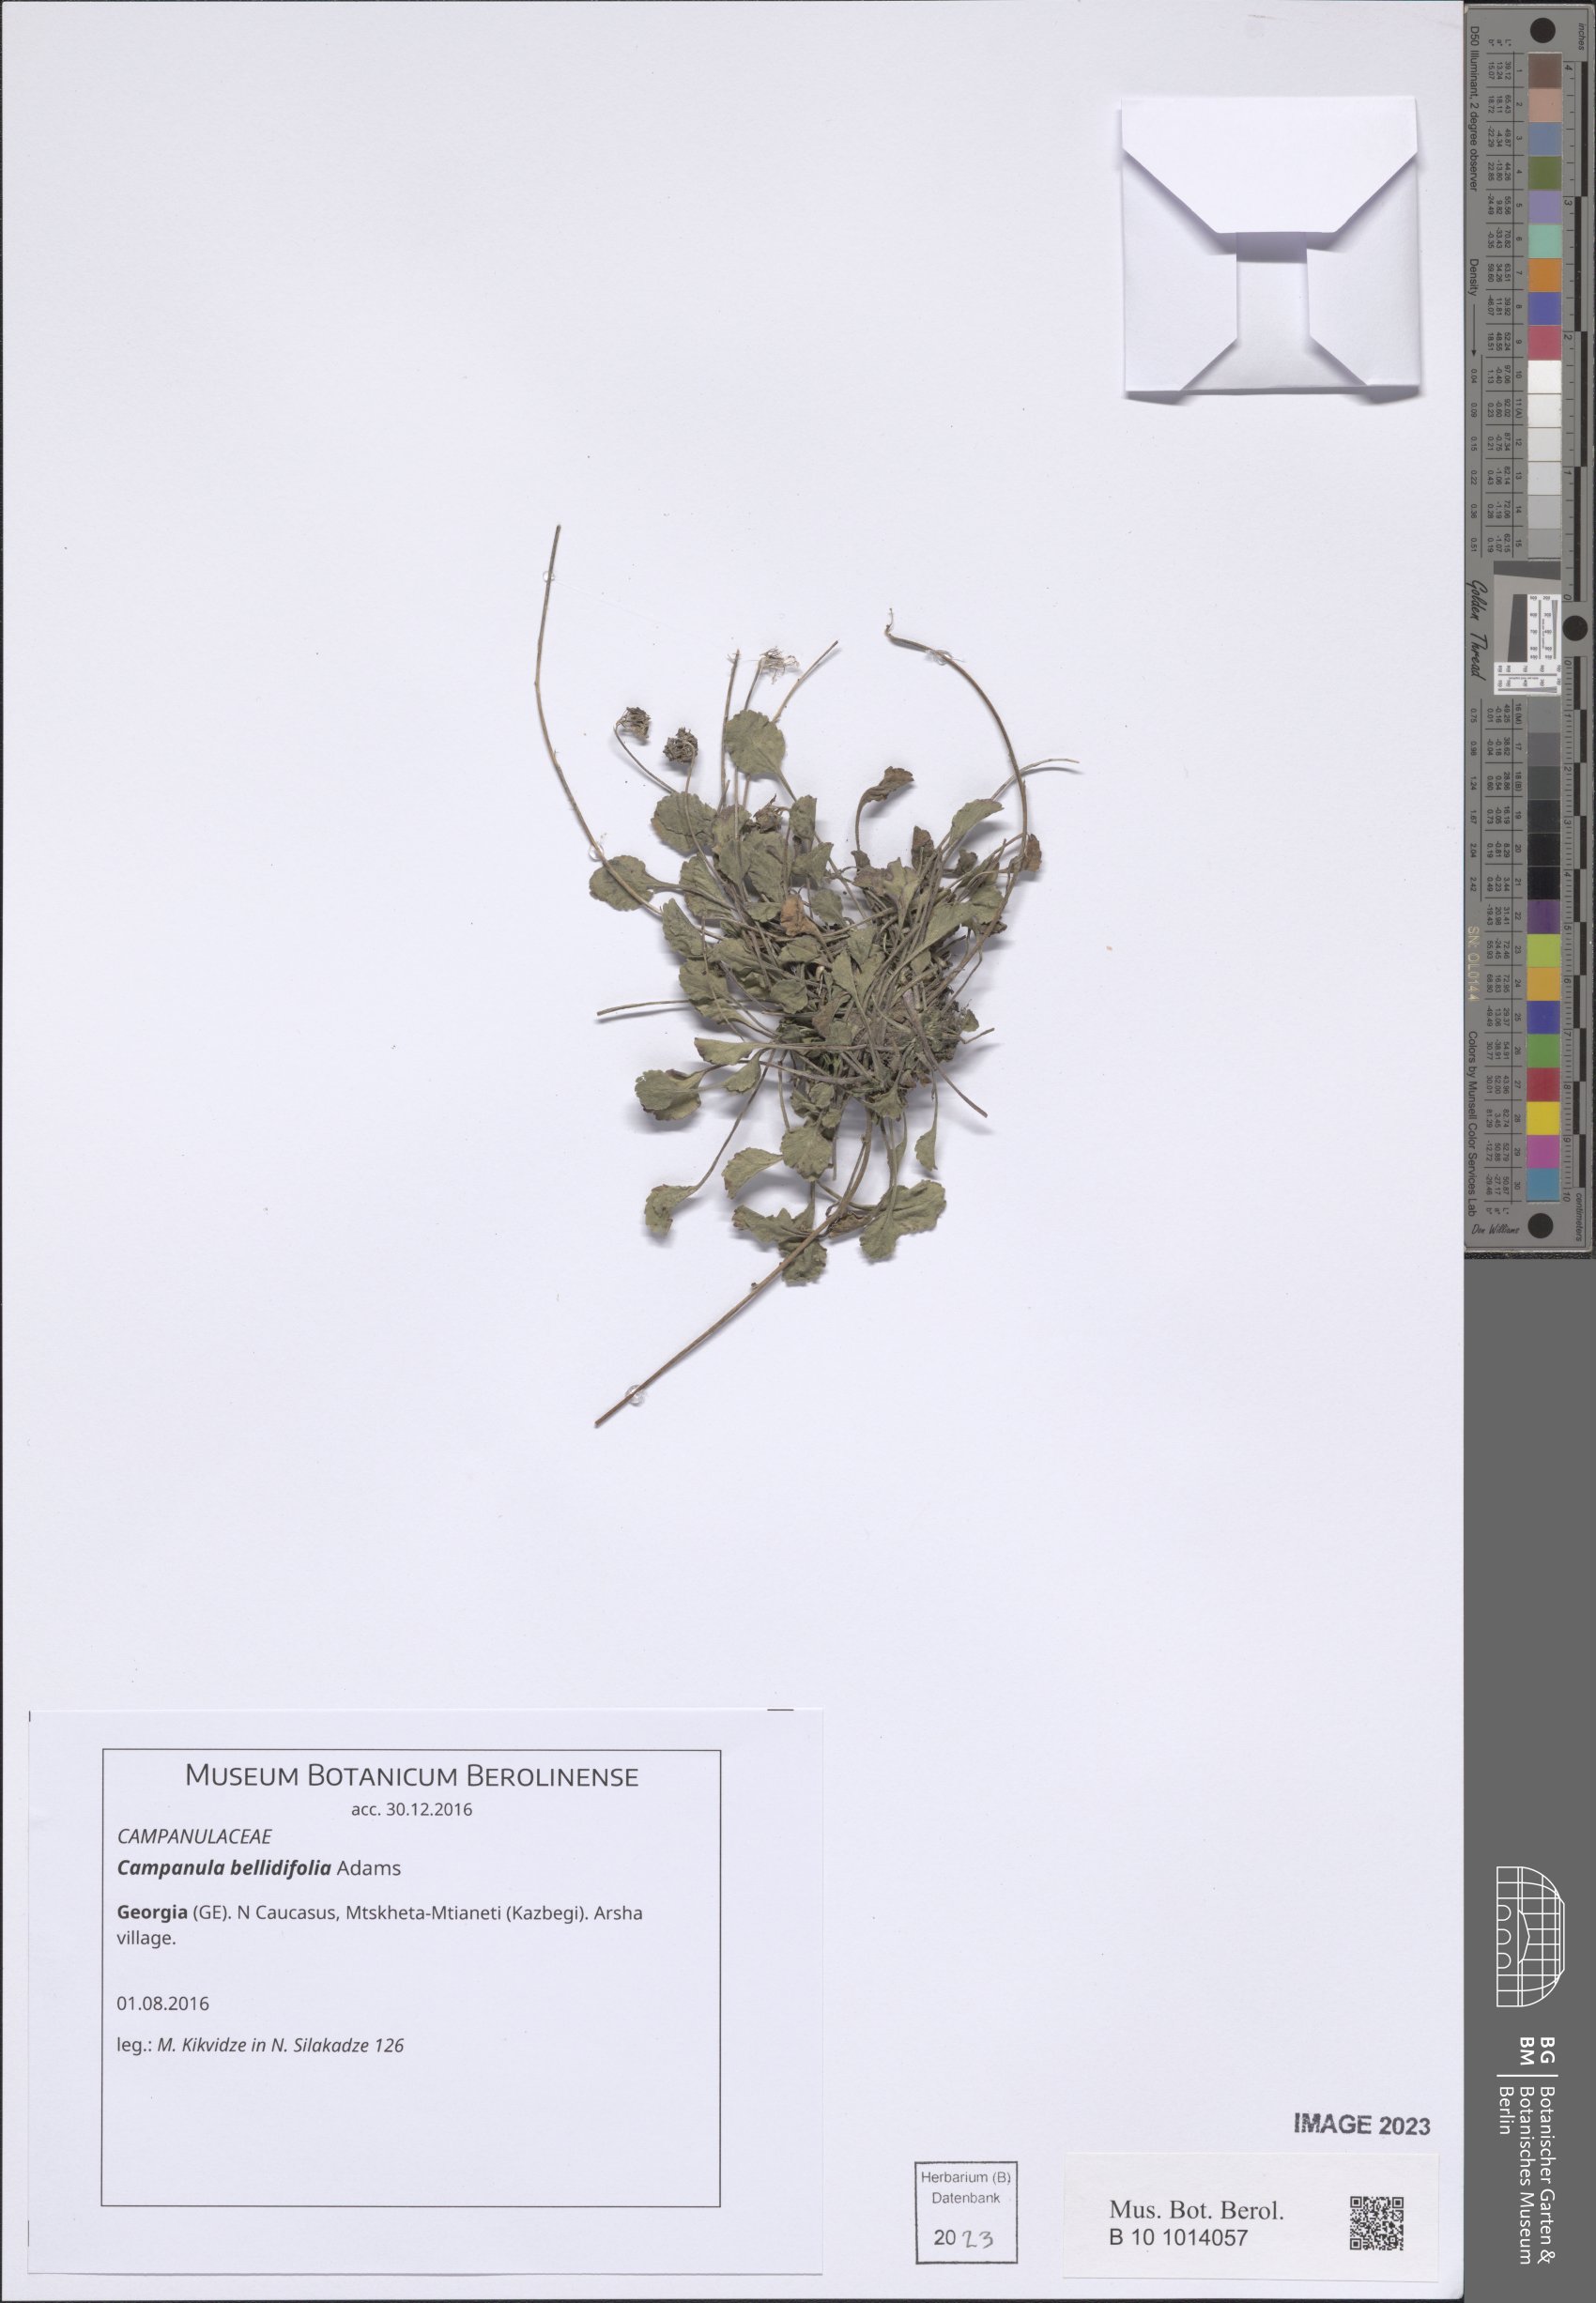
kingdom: Plantae
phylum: Tracheophyta
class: Magnoliopsida
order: Asterales
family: Campanulaceae
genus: Campanula
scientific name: Campanula bellidifolia
